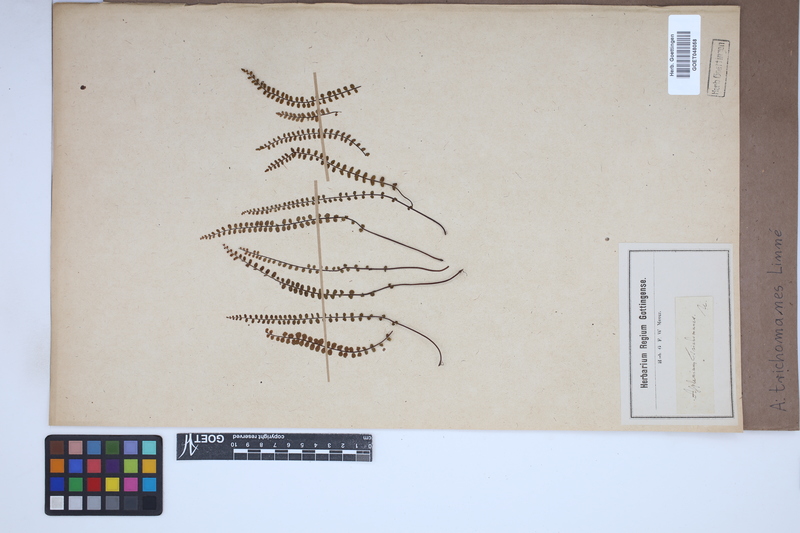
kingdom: Plantae
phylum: Tracheophyta
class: Polypodiopsida
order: Polypodiales
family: Aspleniaceae
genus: Asplenium
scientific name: Asplenium trichomanes
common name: Maidenhair spleenwort
